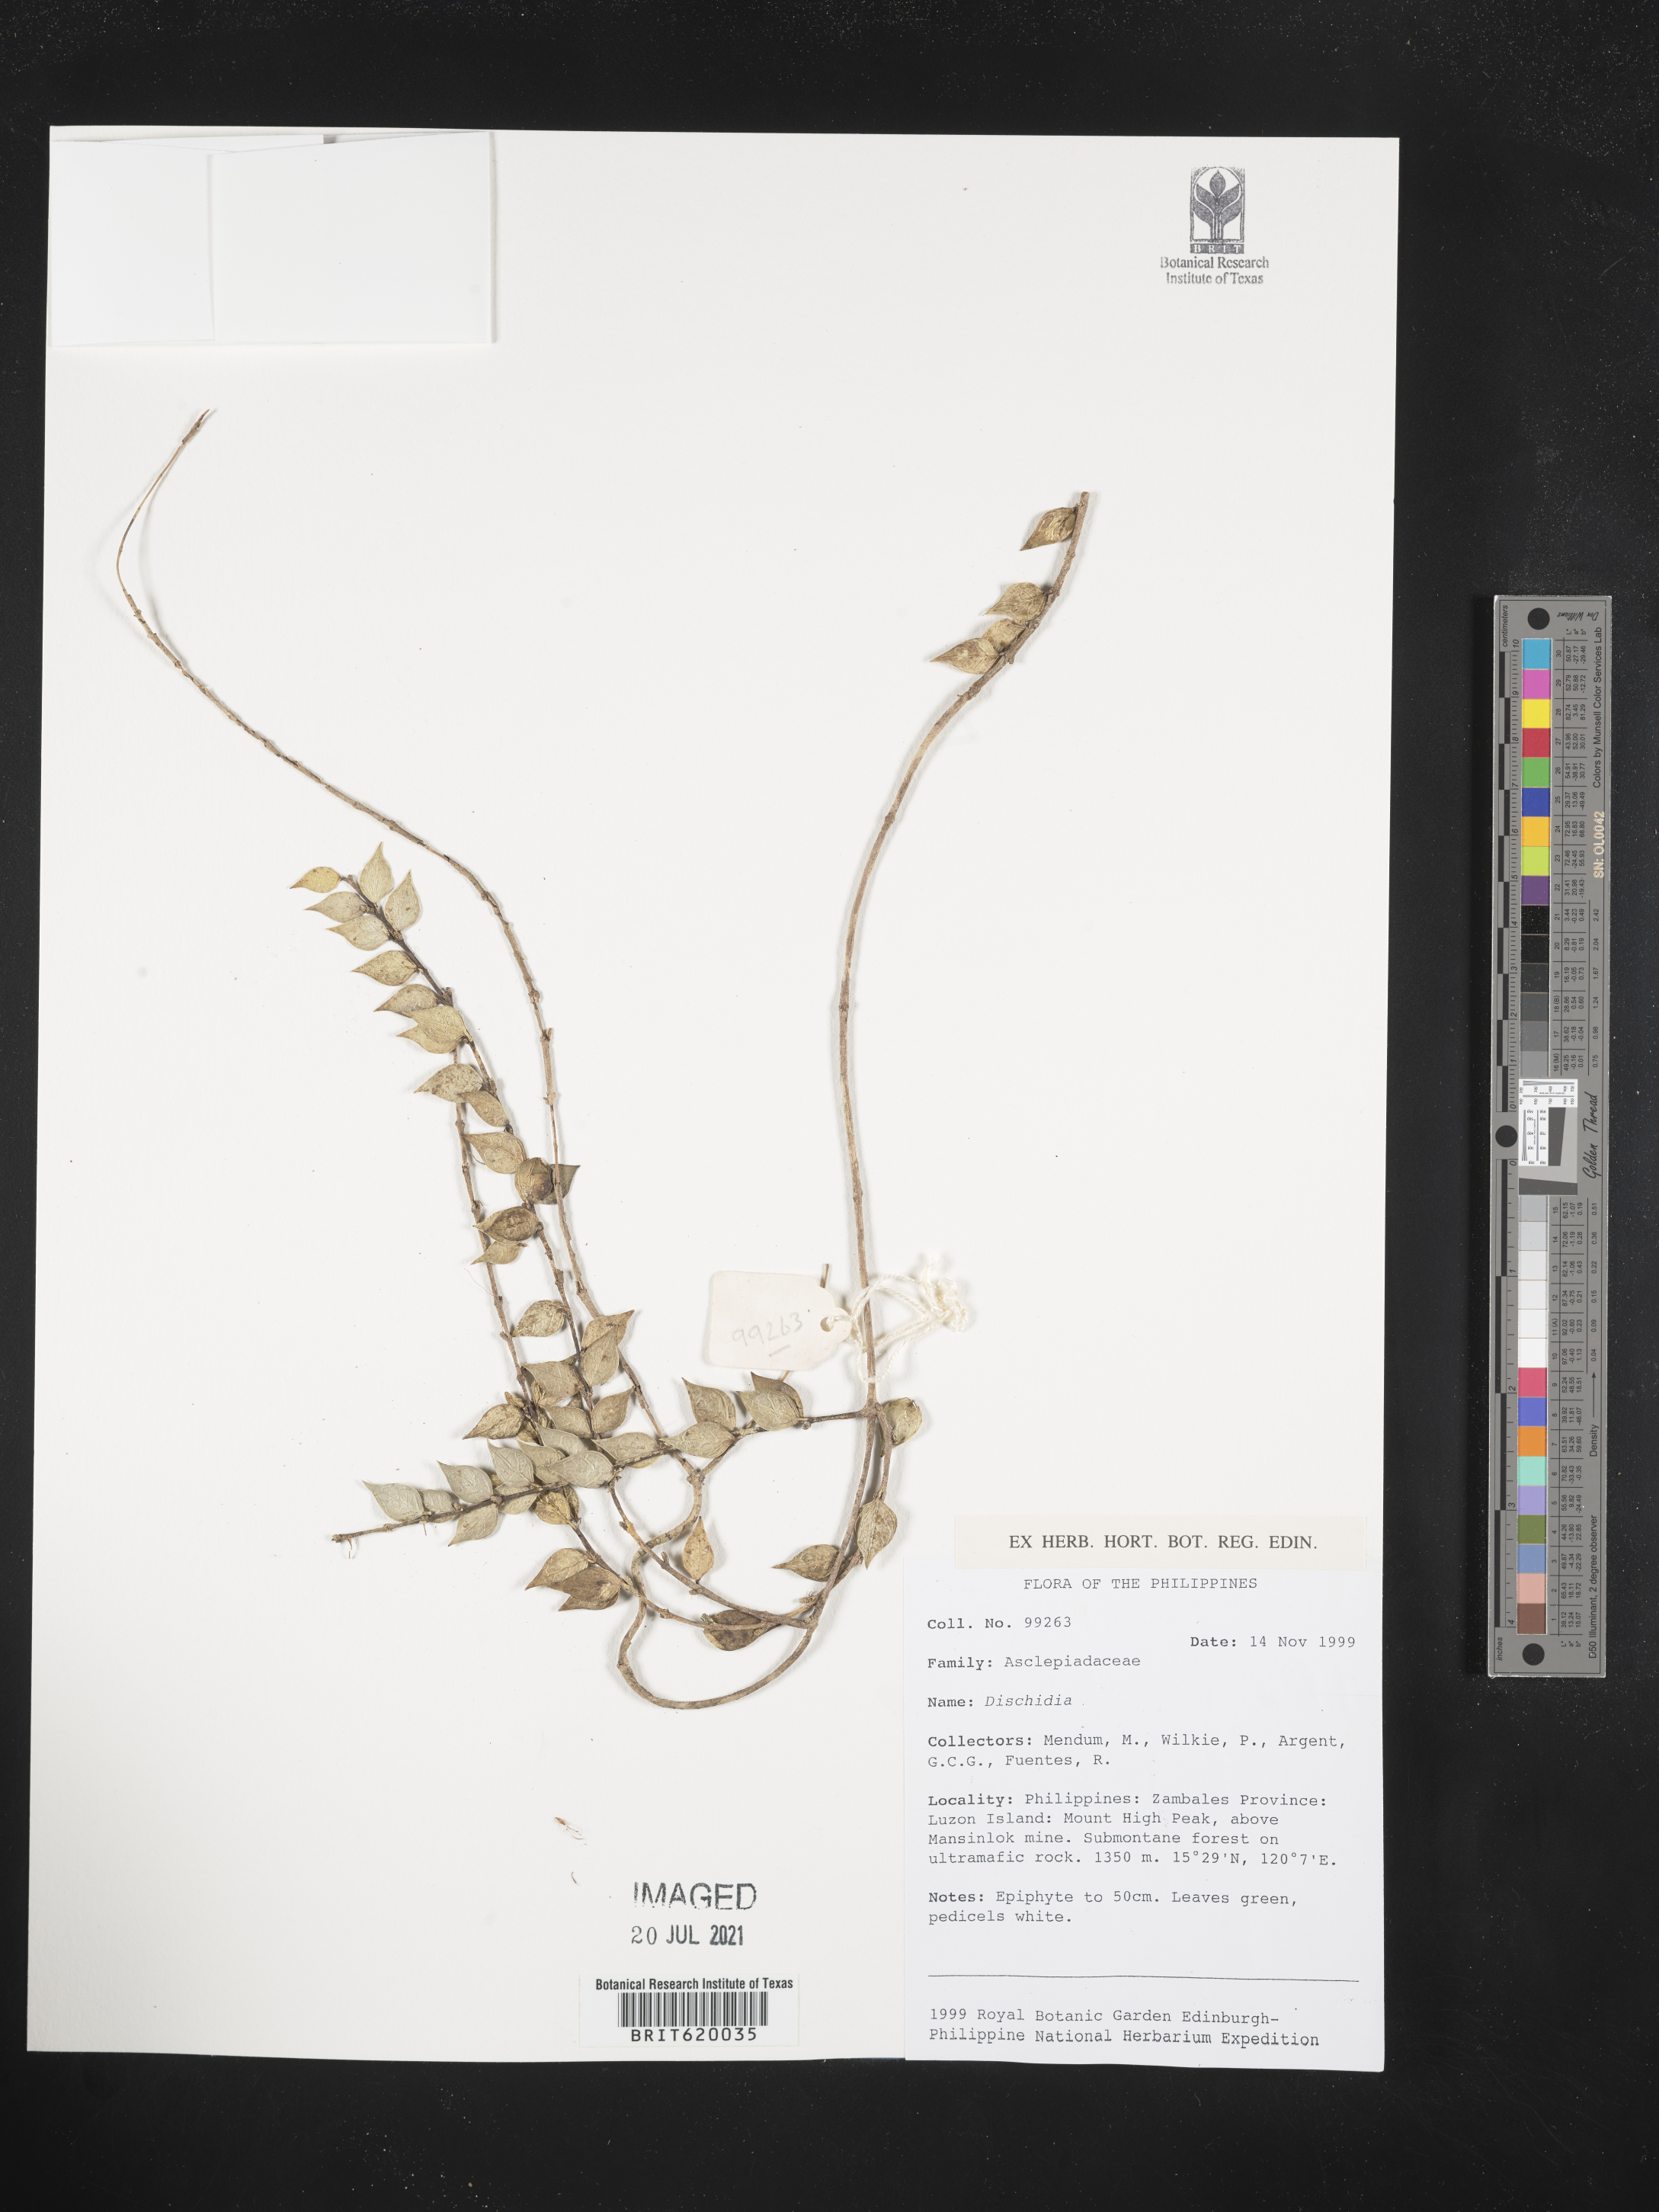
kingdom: Plantae
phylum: Tracheophyta
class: Magnoliopsida
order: Gentianales
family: Apocynaceae
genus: Dischidia
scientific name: Dischidia
